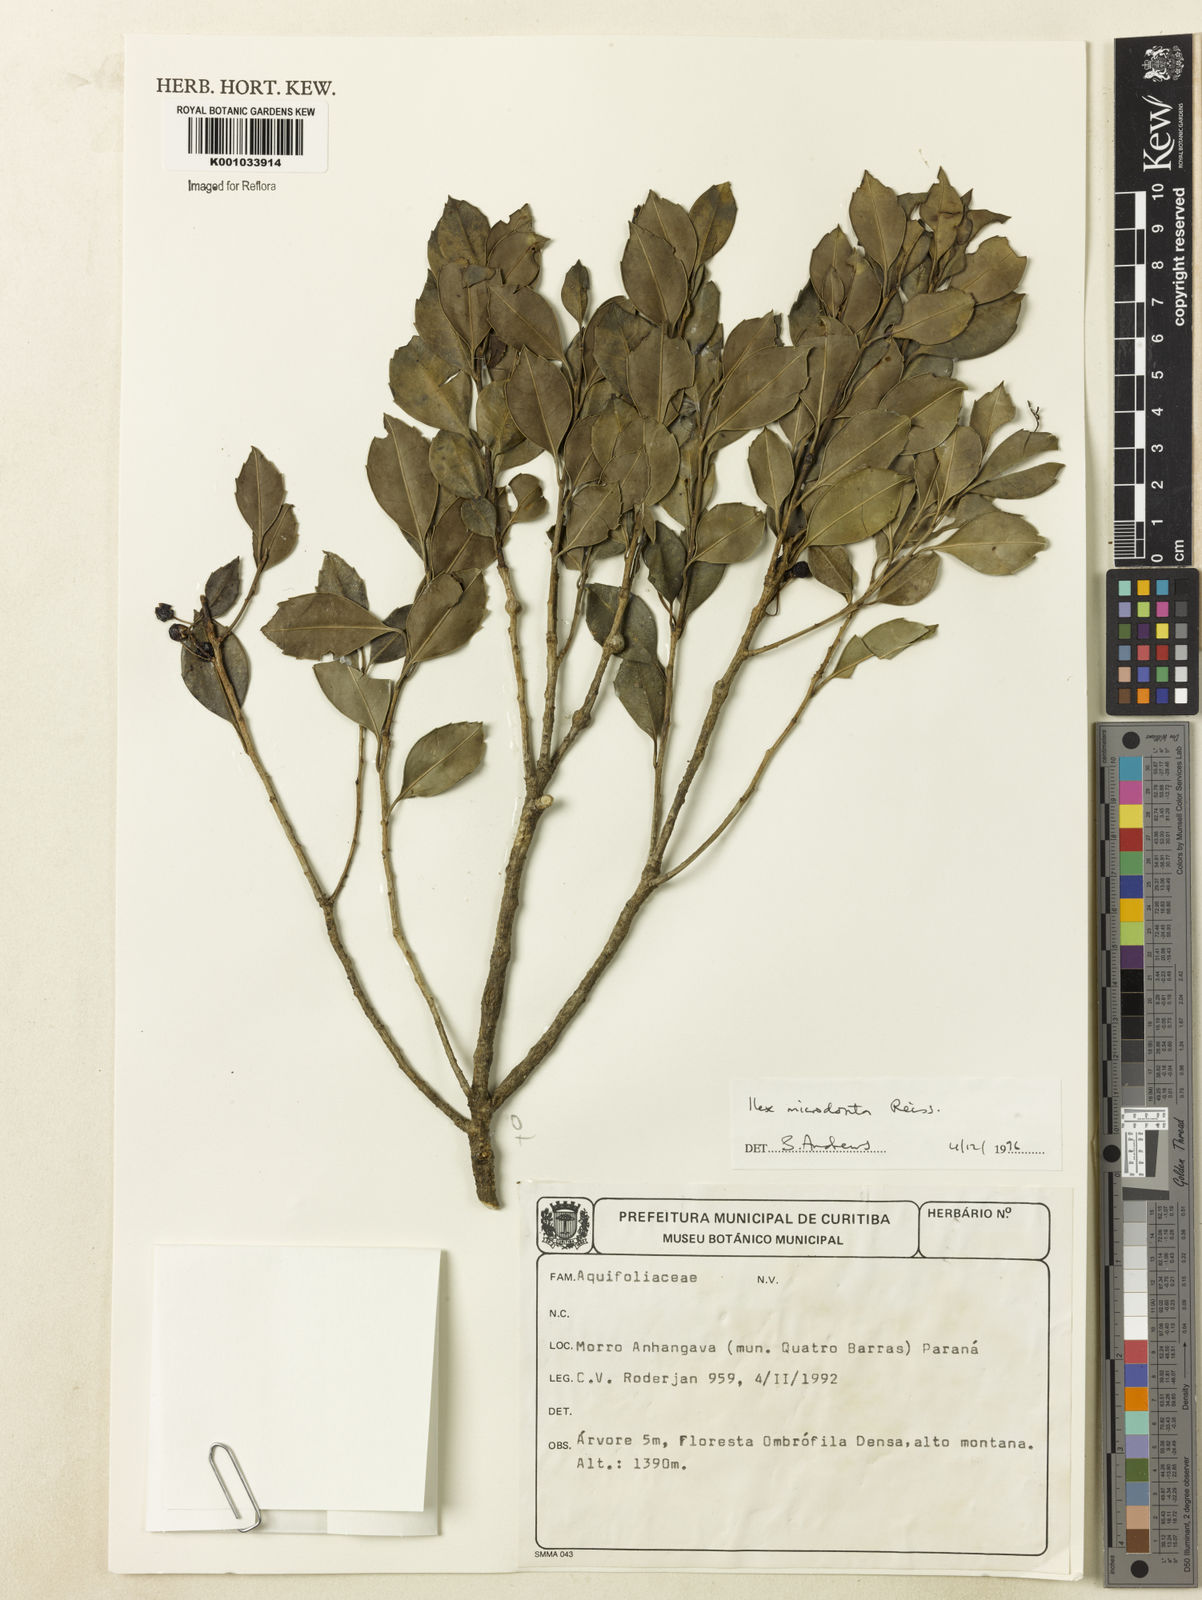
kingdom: Plantae
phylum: Tracheophyta
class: Magnoliopsida
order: Aquifoliales
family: Aquifoliaceae
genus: Ilex
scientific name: Ilex microdonta
